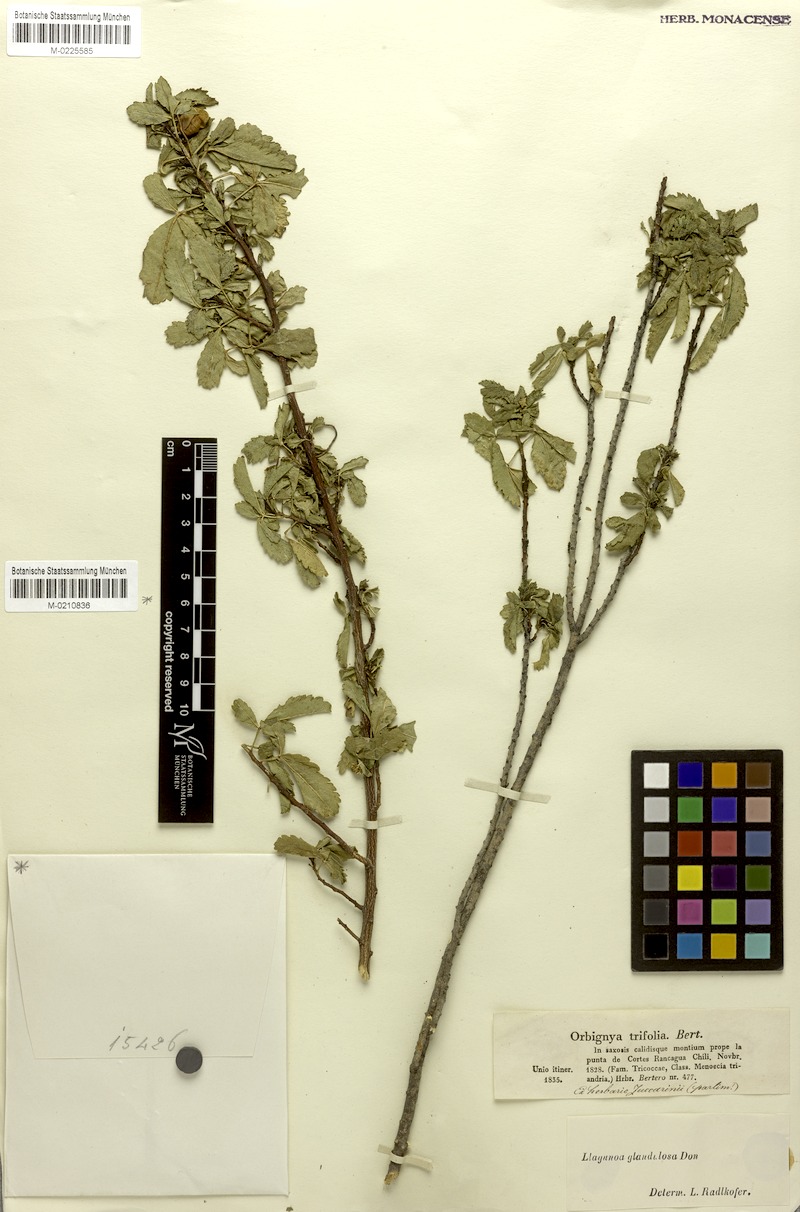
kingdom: Plantae
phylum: Tracheophyta
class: Magnoliopsida
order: Sapindales
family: Sapindaceae
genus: Llagunoa
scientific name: Llagunoa glandulosa
